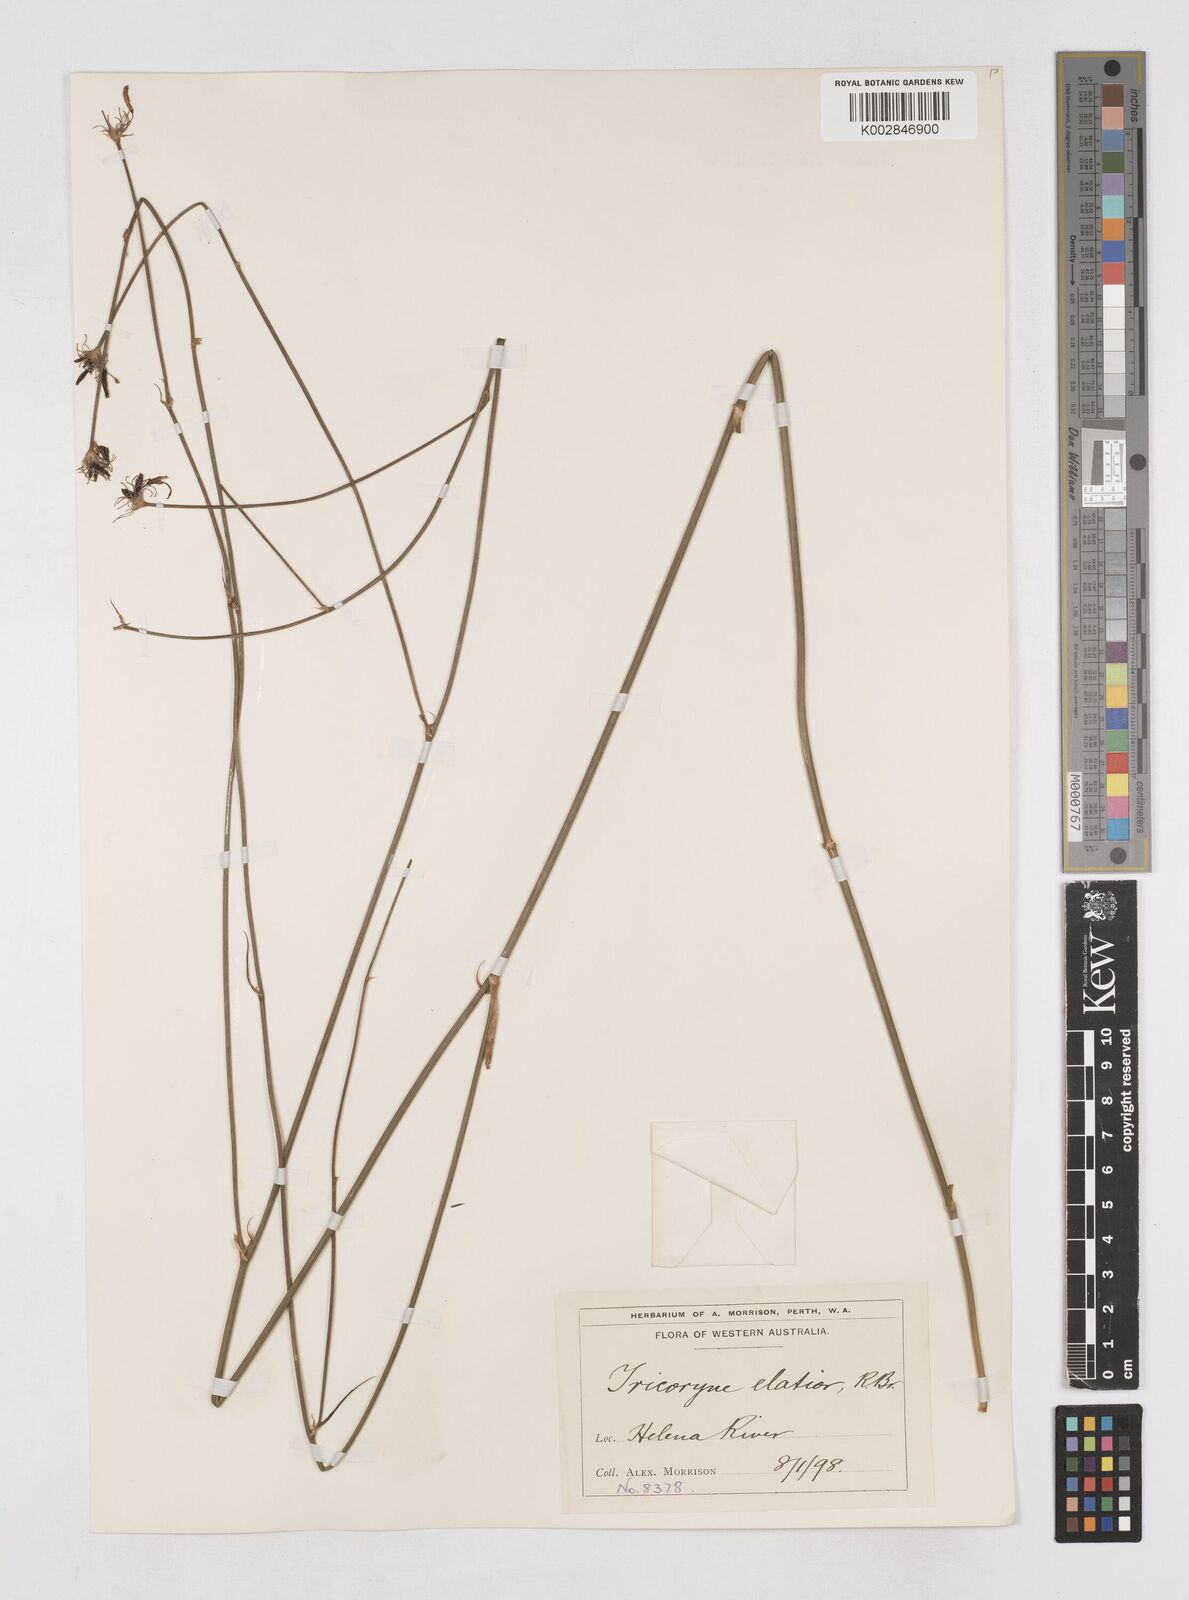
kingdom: Plantae
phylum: Tracheophyta
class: Liliopsida
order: Asparagales
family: Asphodelaceae
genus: Tricoryne
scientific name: Tricoryne elatior
